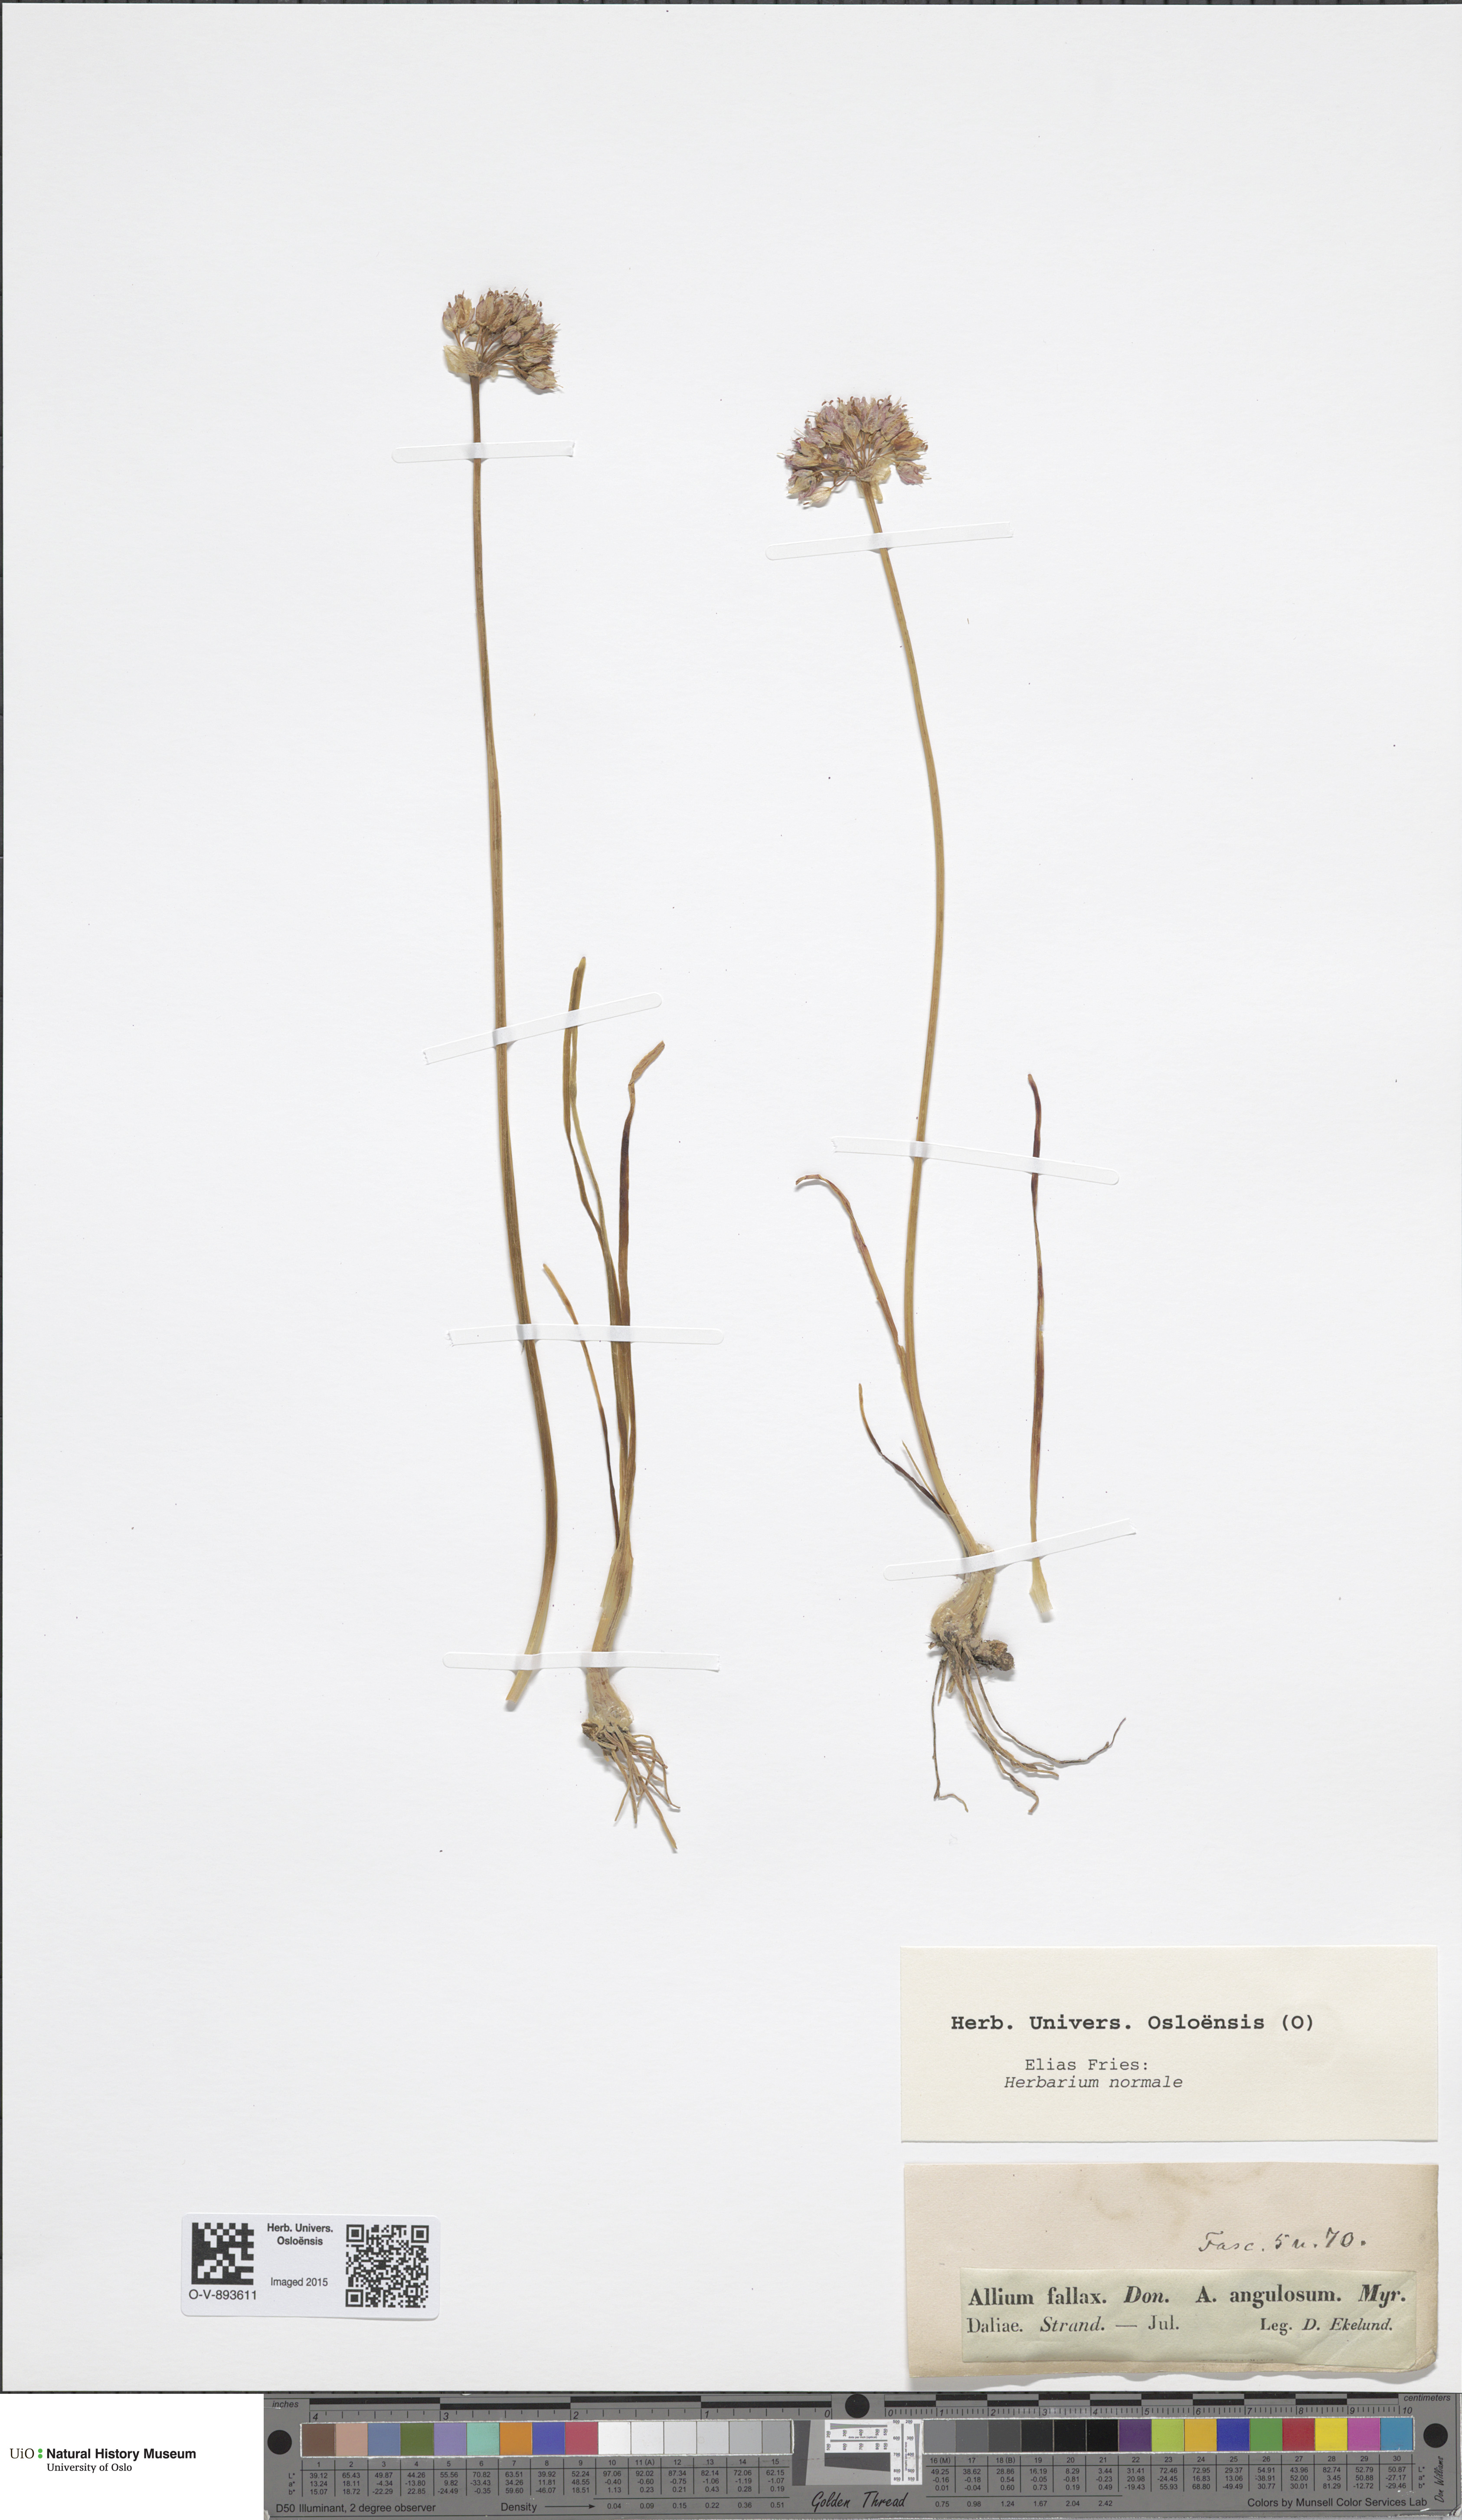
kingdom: Plantae
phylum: Tracheophyta
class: Liliopsida
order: Asparagales
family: Amaryllidaceae
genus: Allium
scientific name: Allium lusitanicum
